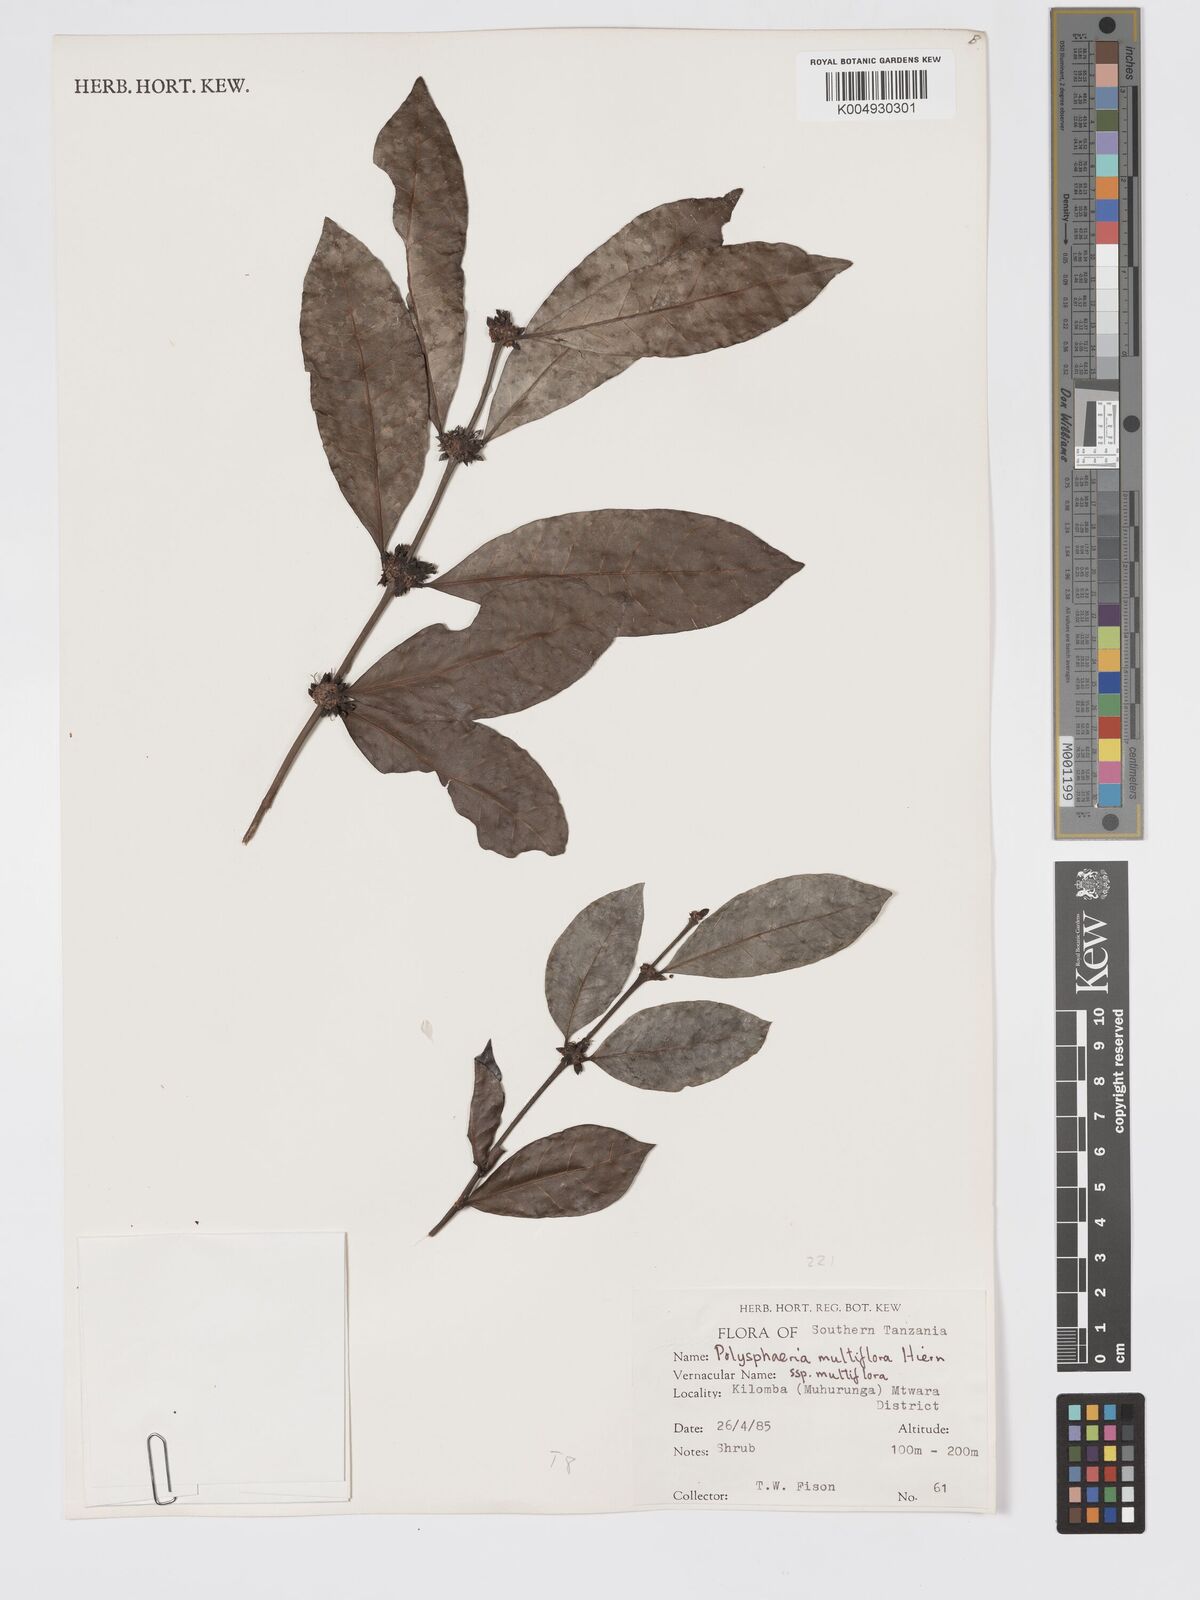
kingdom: Plantae
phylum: Tracheophyta
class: Magnoliopsida
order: Gentianales
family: Rubiaceae
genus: Polysphaeria
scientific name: Polysphaeria multiflora
